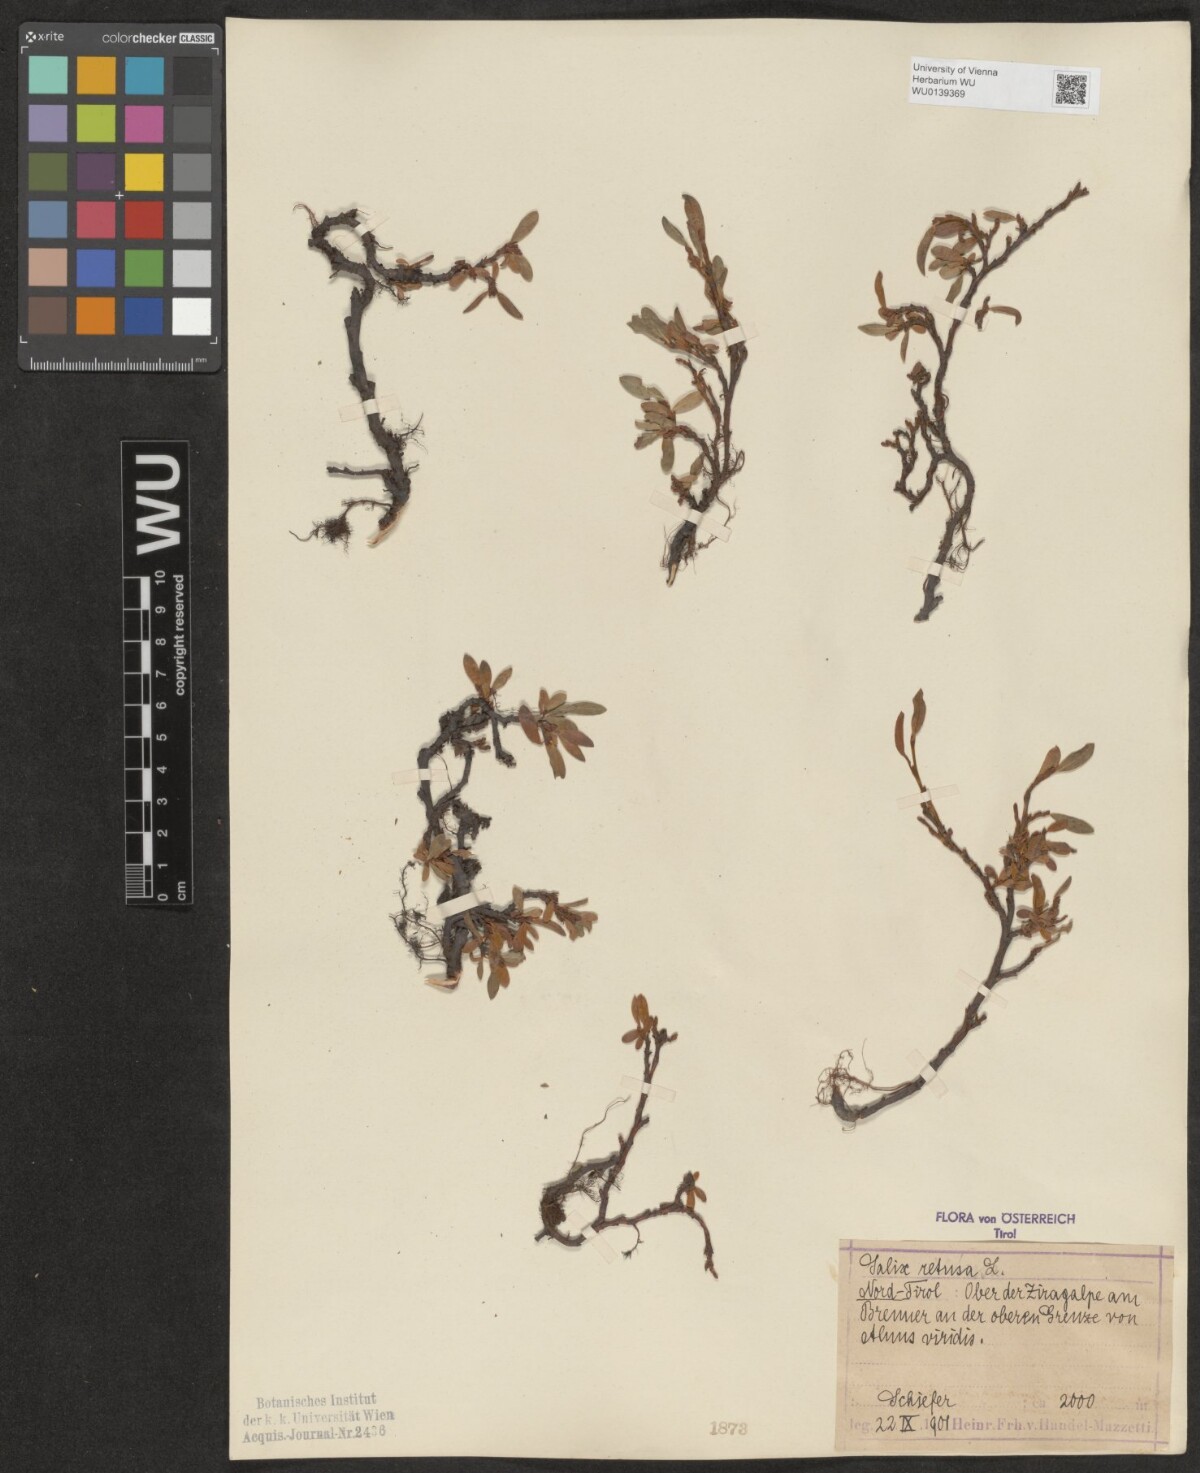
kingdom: Plantae
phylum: Tracheophyta
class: Magnoliopsida
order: Malpighiales
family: Salicaceae
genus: Salix
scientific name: Salix retusa
